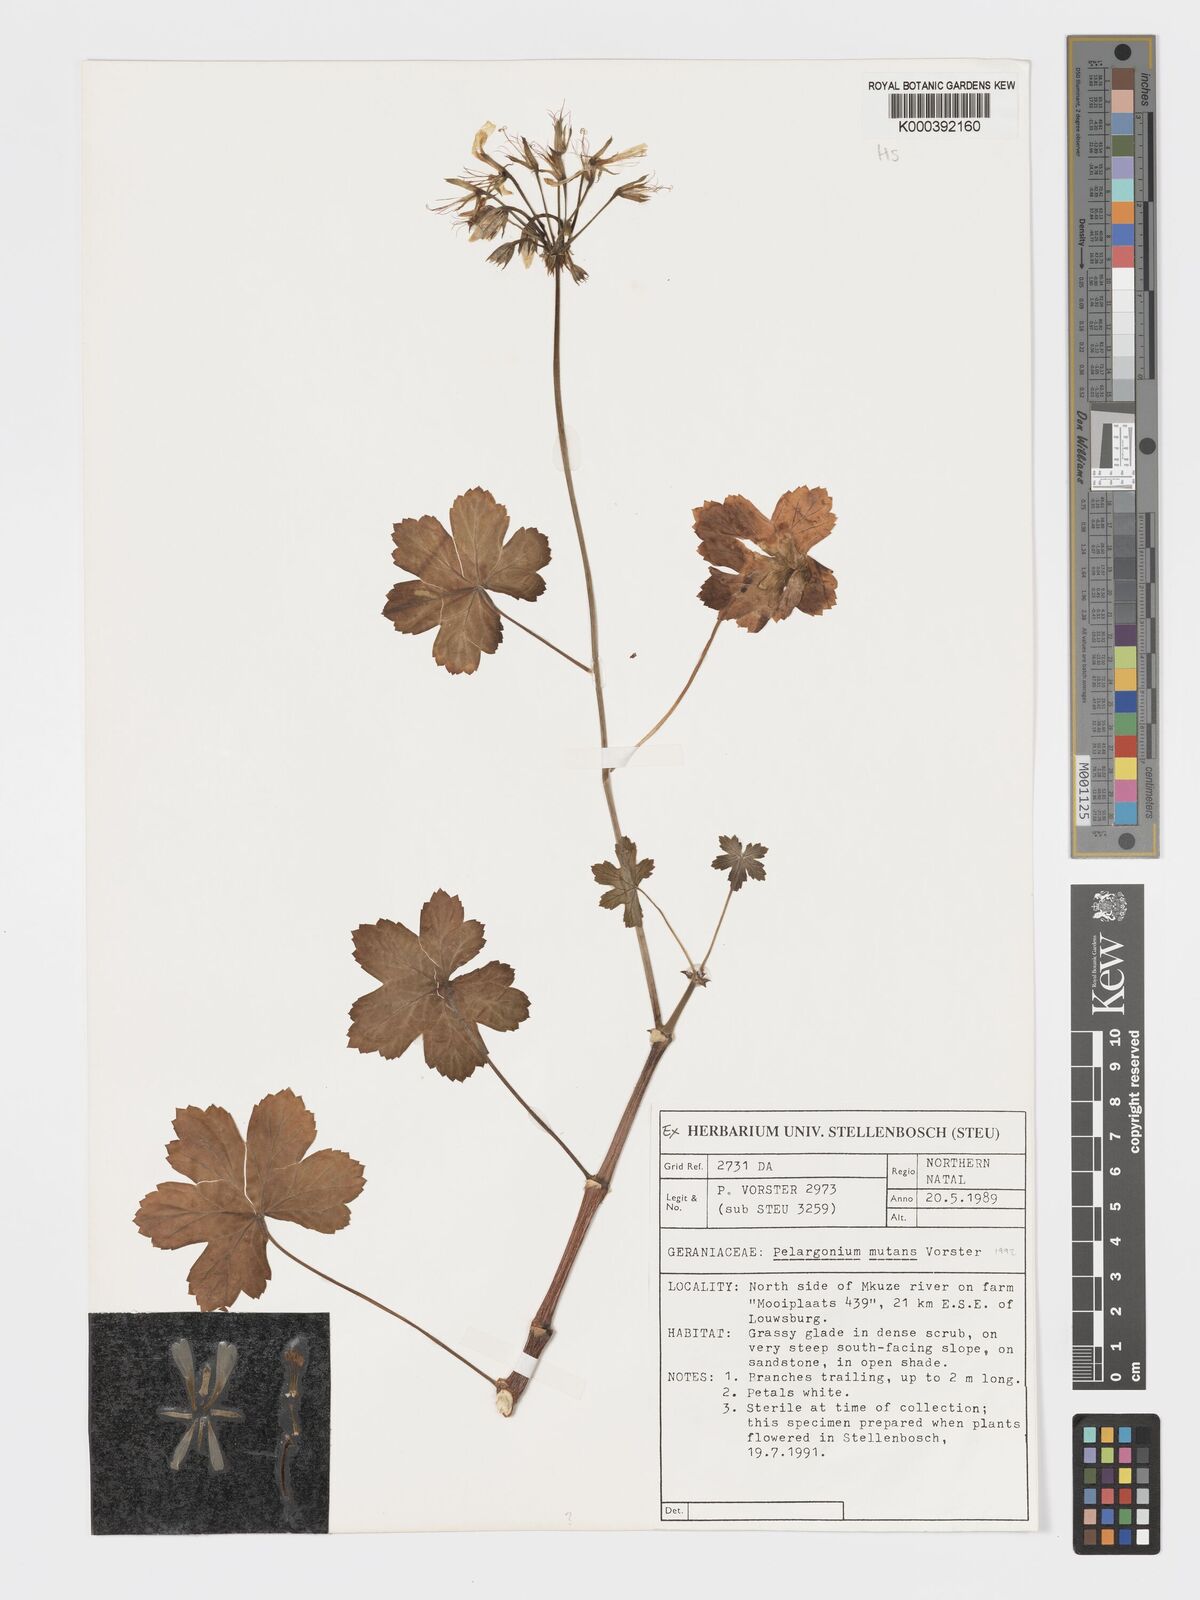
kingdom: Plantae
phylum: Tracheophyta
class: Magnoliopsida
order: Geraniales
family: Geraniaceae
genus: Pelargonium
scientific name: Pelargonium mutans
